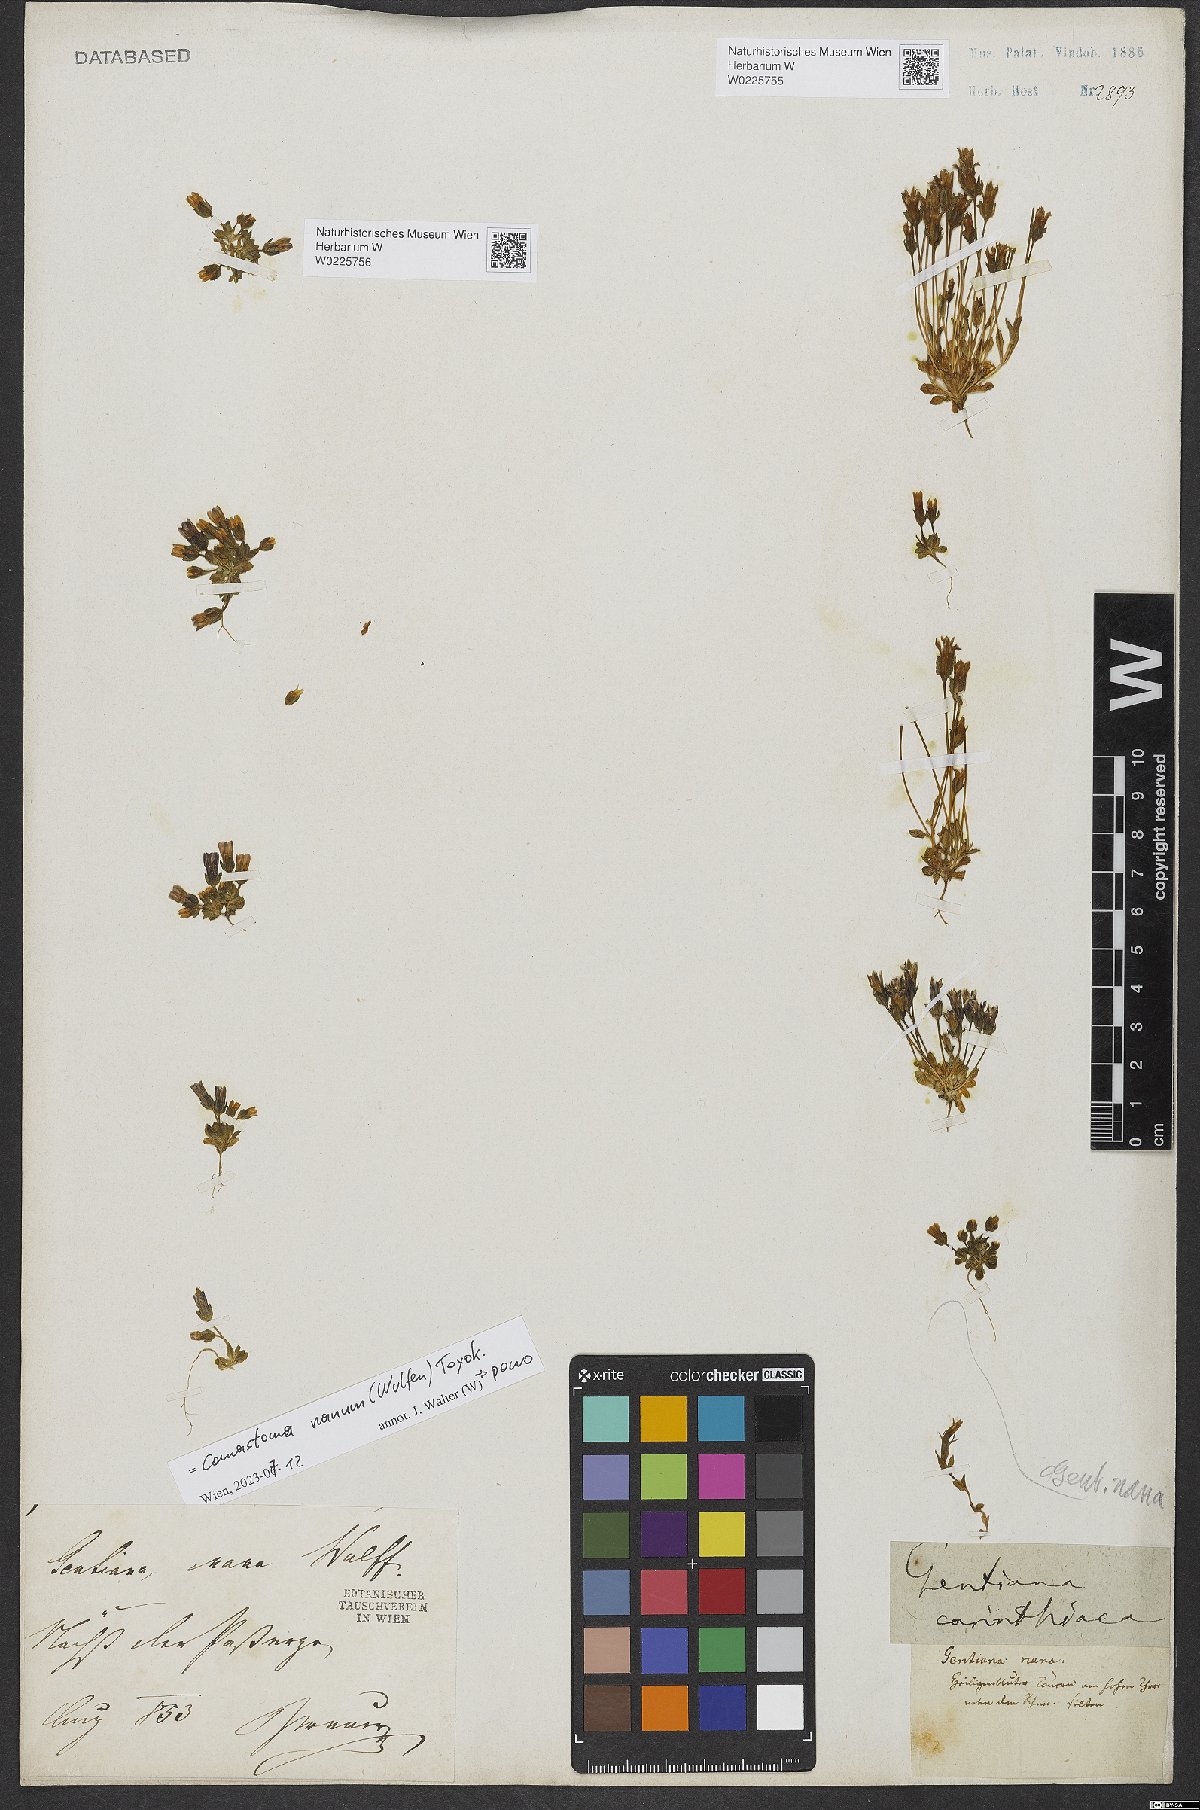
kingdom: Plantae
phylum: Tracheophyta
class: Magnoliopsida
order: Gentianales
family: Gentianaceae
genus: Comastoma
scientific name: Comastoma nanum
